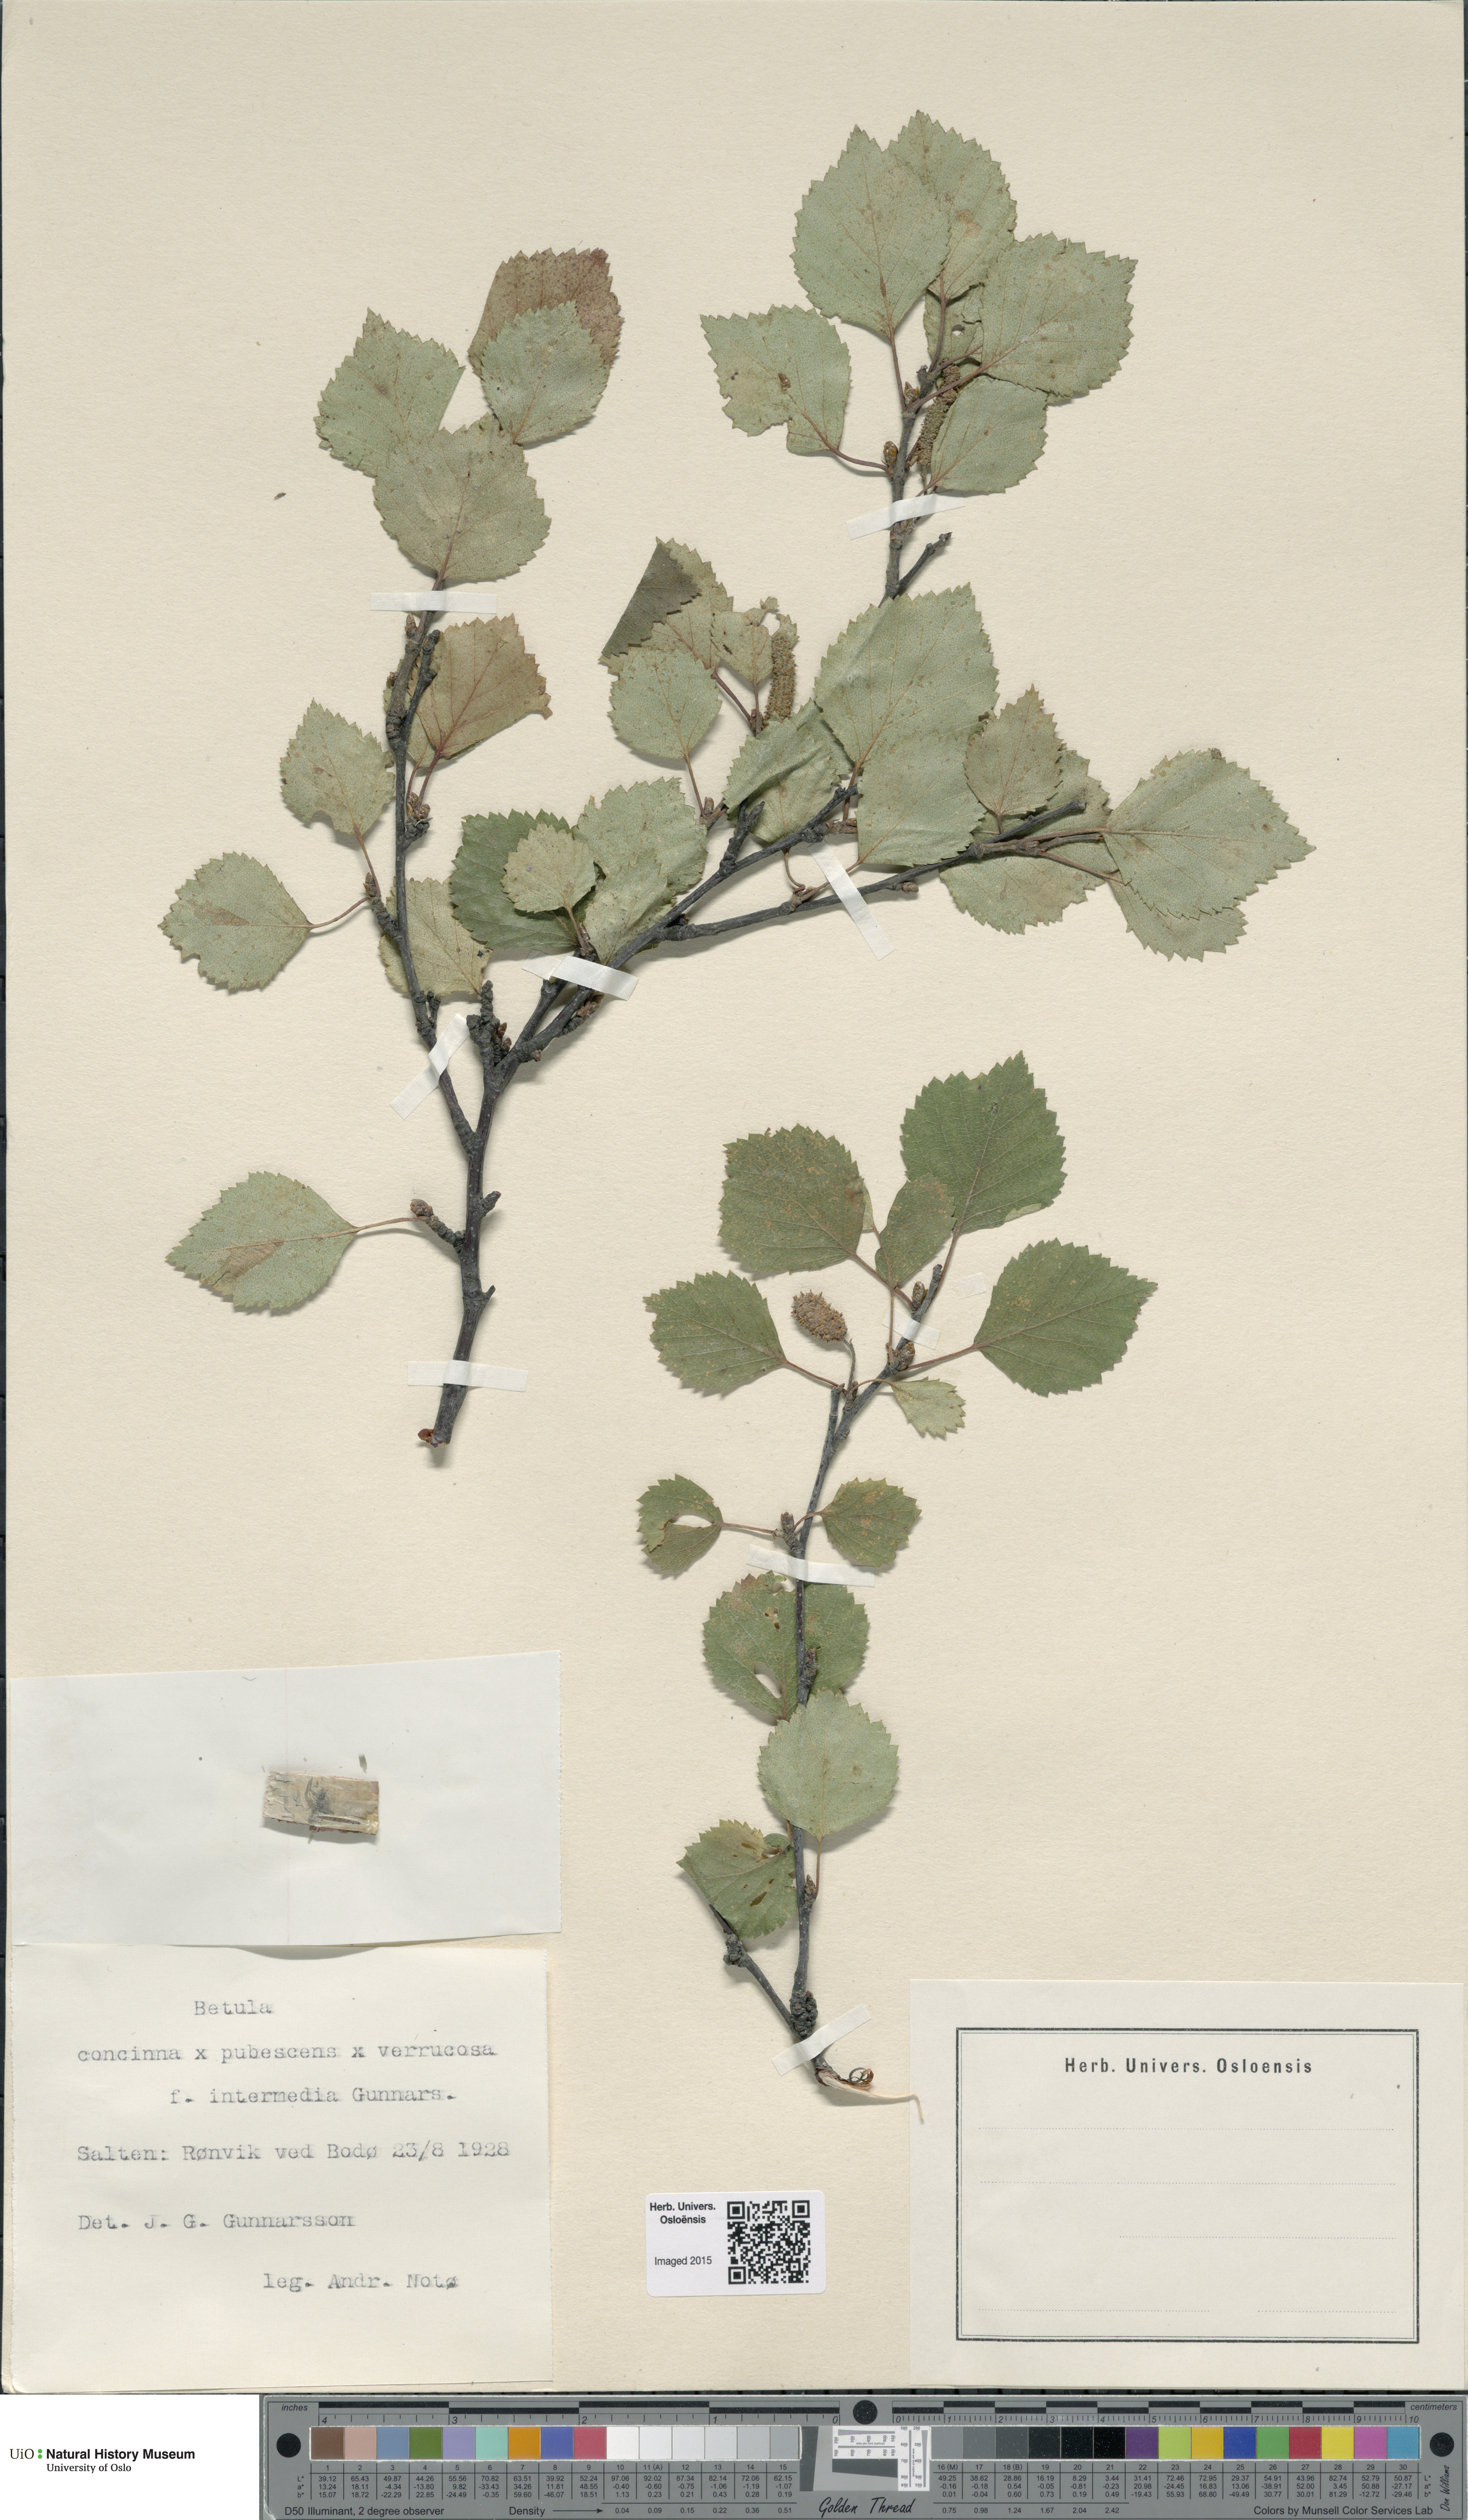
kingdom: Plantae
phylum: Tracheophyta
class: Magnoliopsida
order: Fagales
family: Betulaceae
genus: Betula
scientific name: Betula pubescens
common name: Downy birch
